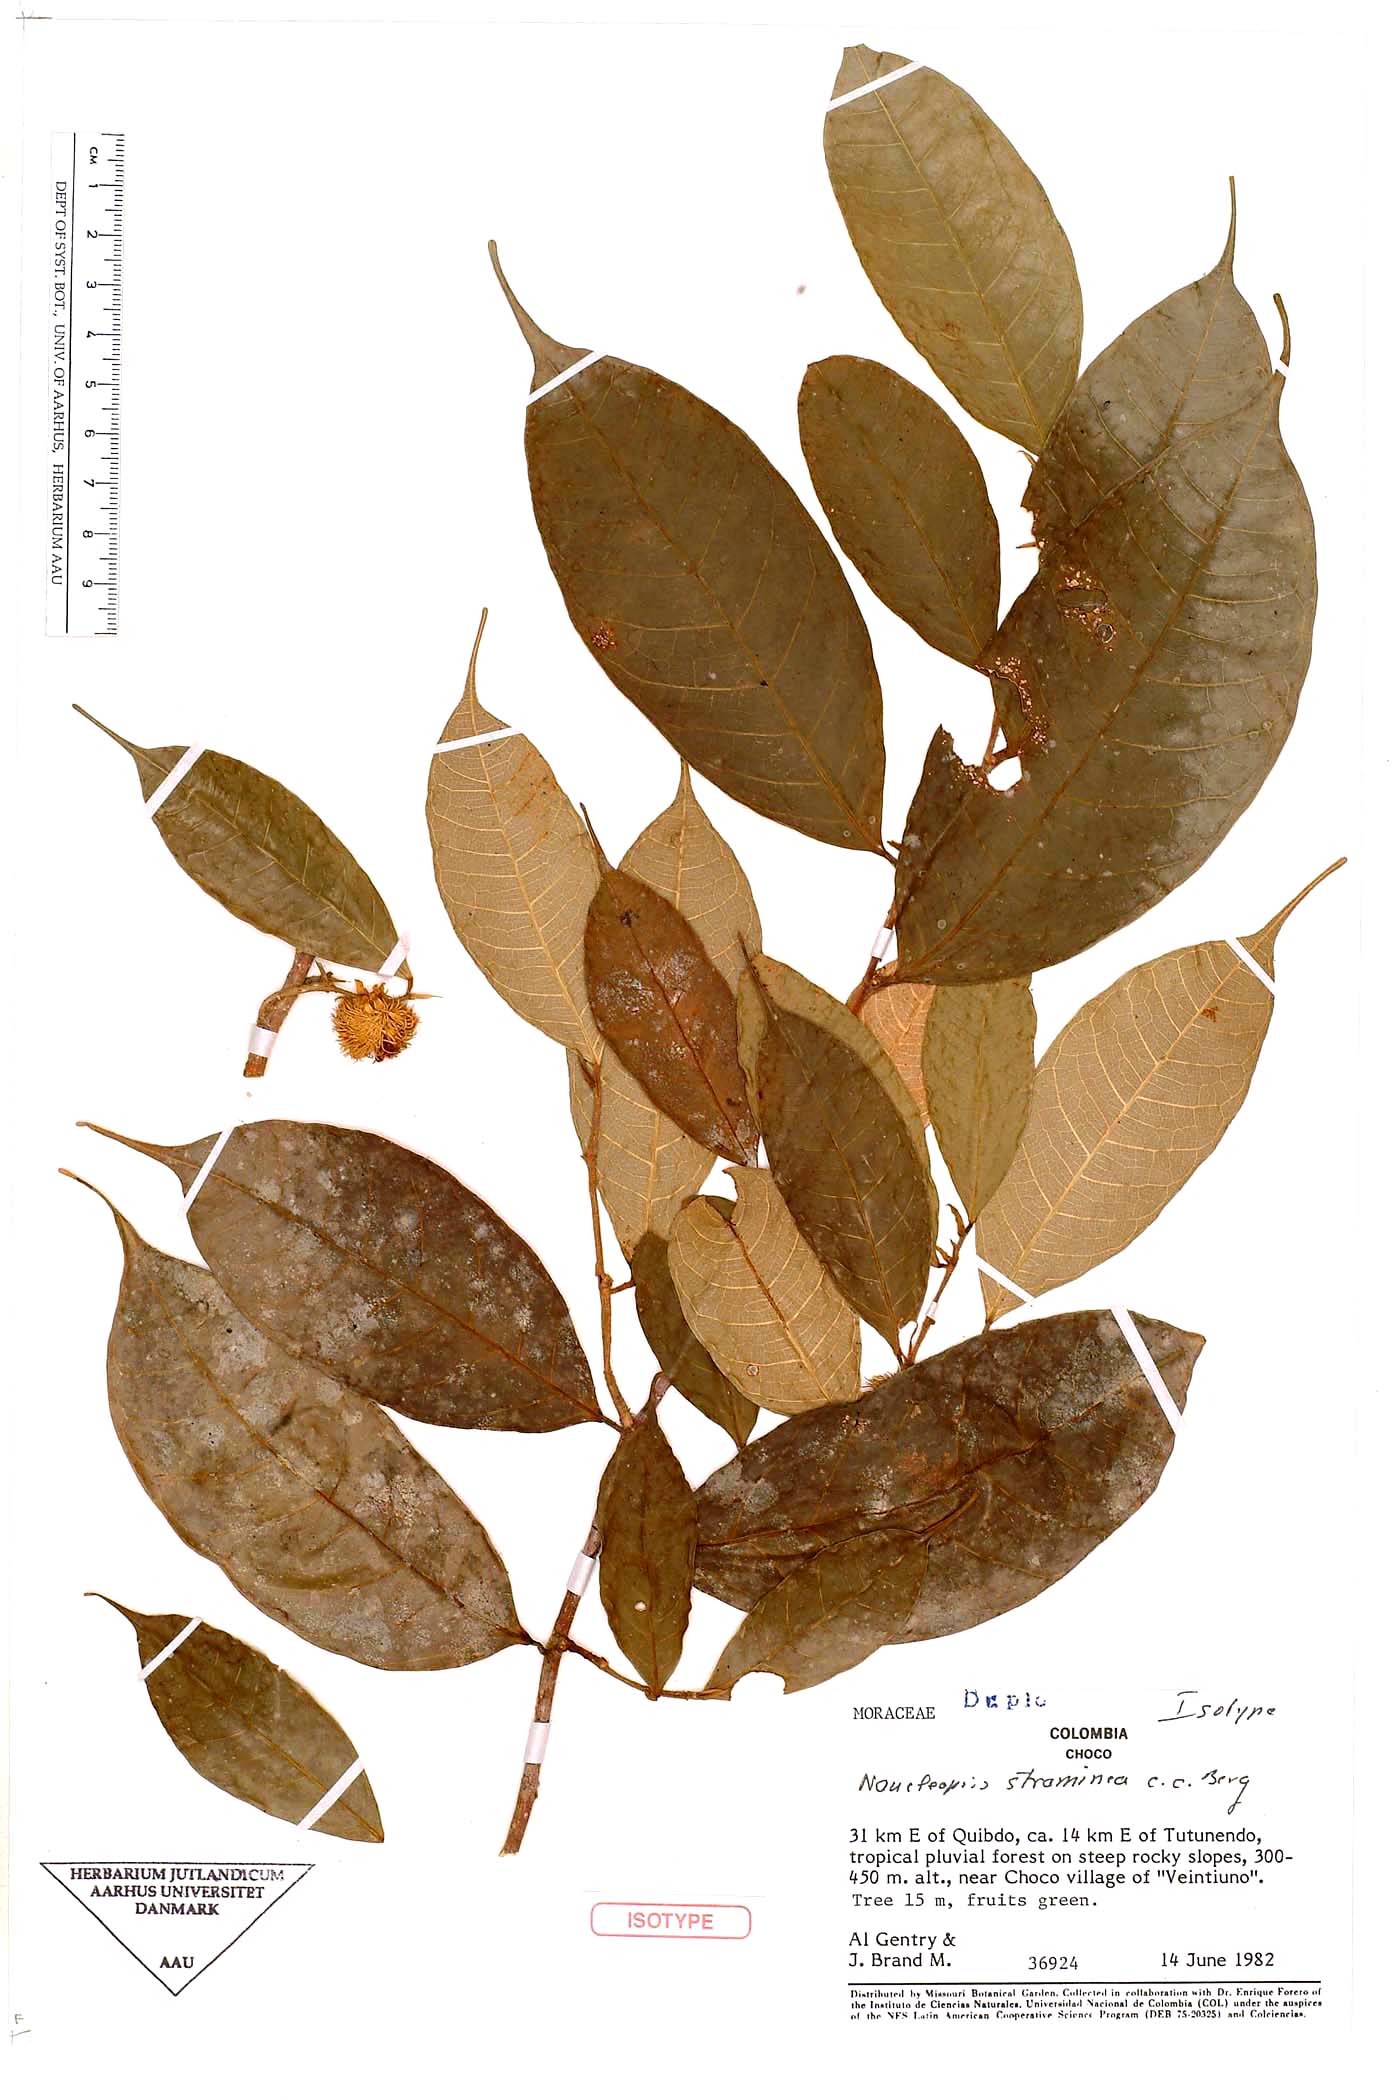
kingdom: Plantae
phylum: Tracheophyta
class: Magnoliopsida
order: Rosales
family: Moraceae
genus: Naucleopsis
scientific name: Naucleopsis straminea
